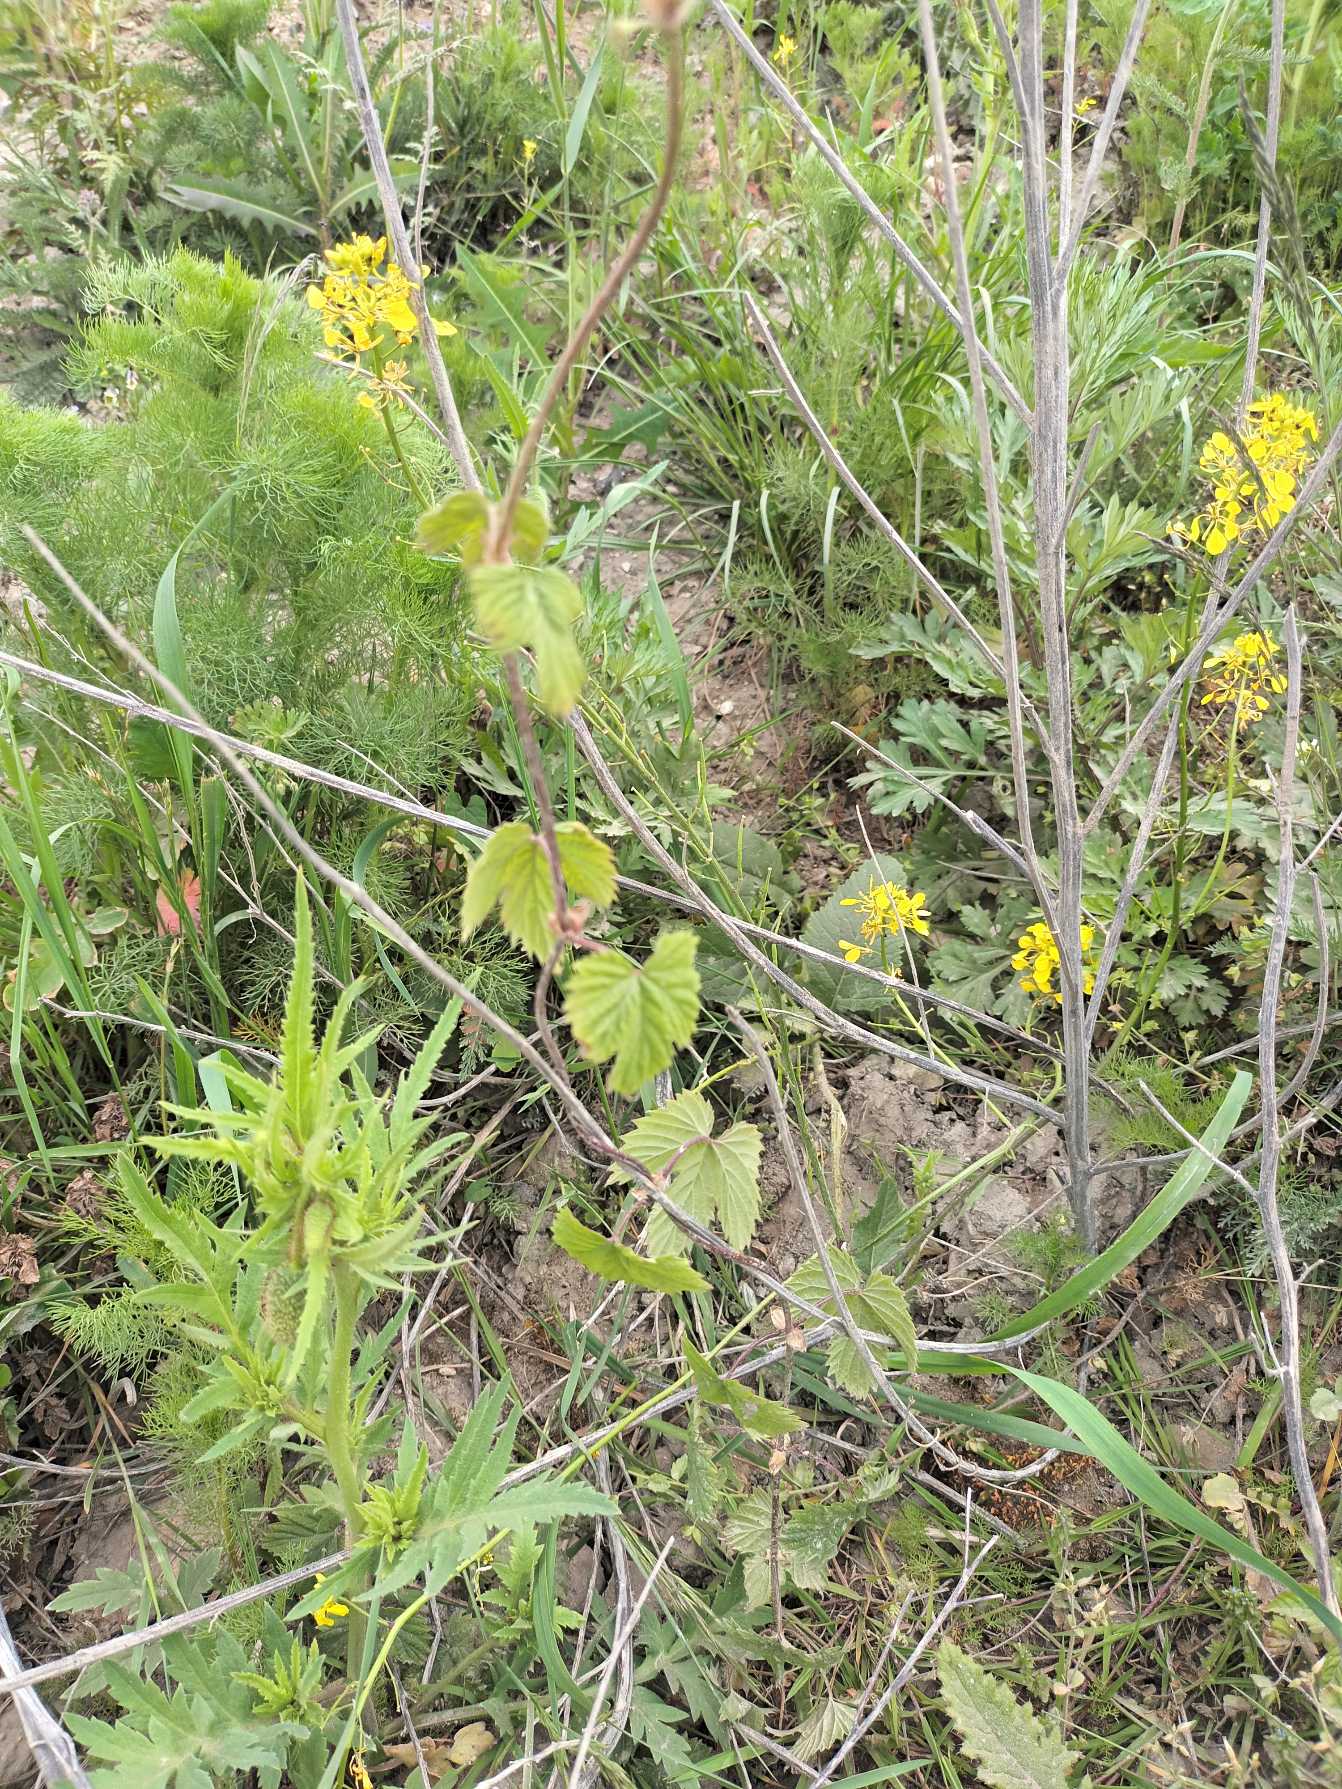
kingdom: Plantae
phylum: Tracheophyta
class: Magnoliopsida
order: Rosales
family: Cannabaceae
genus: Humulus
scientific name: Humulus lupulus
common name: Humle
